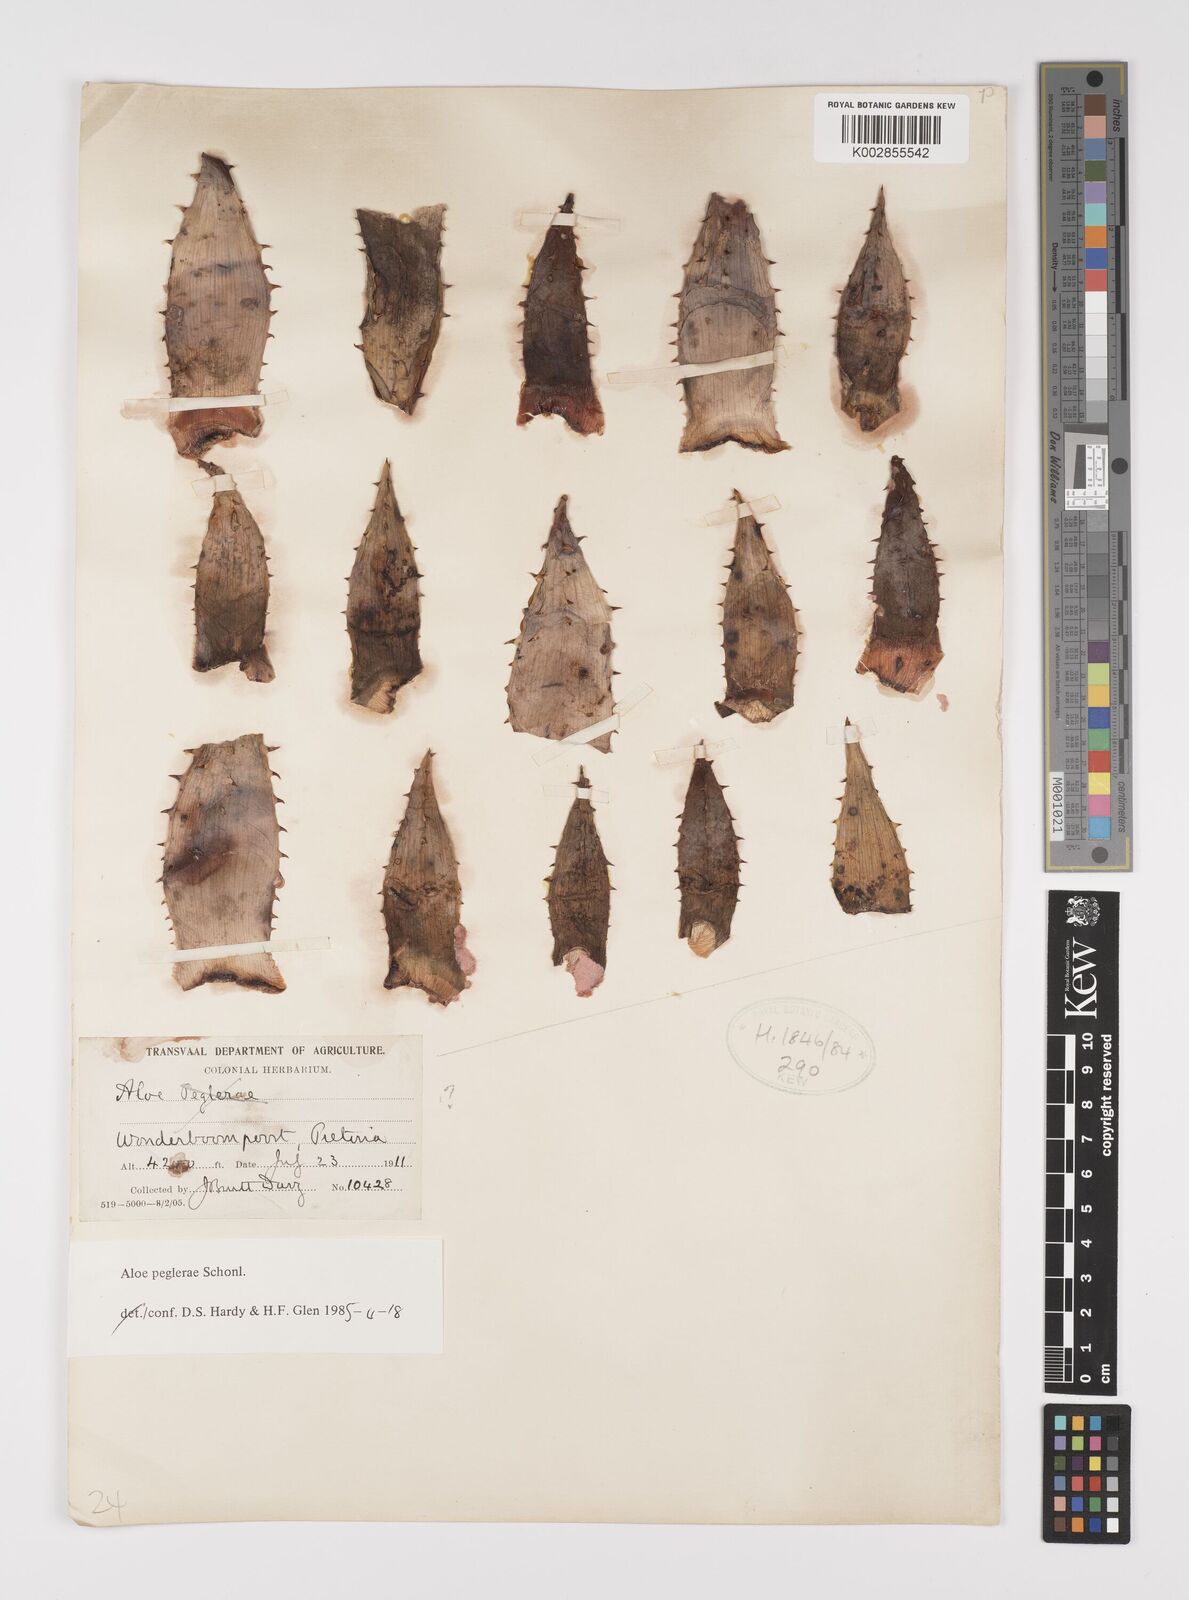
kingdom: Plantae
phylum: Tracheophyta
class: Liliopsida
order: Asparagales
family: Asphodelaceae
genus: Aloe
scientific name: Aloe peglerae
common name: Red-hot poker
